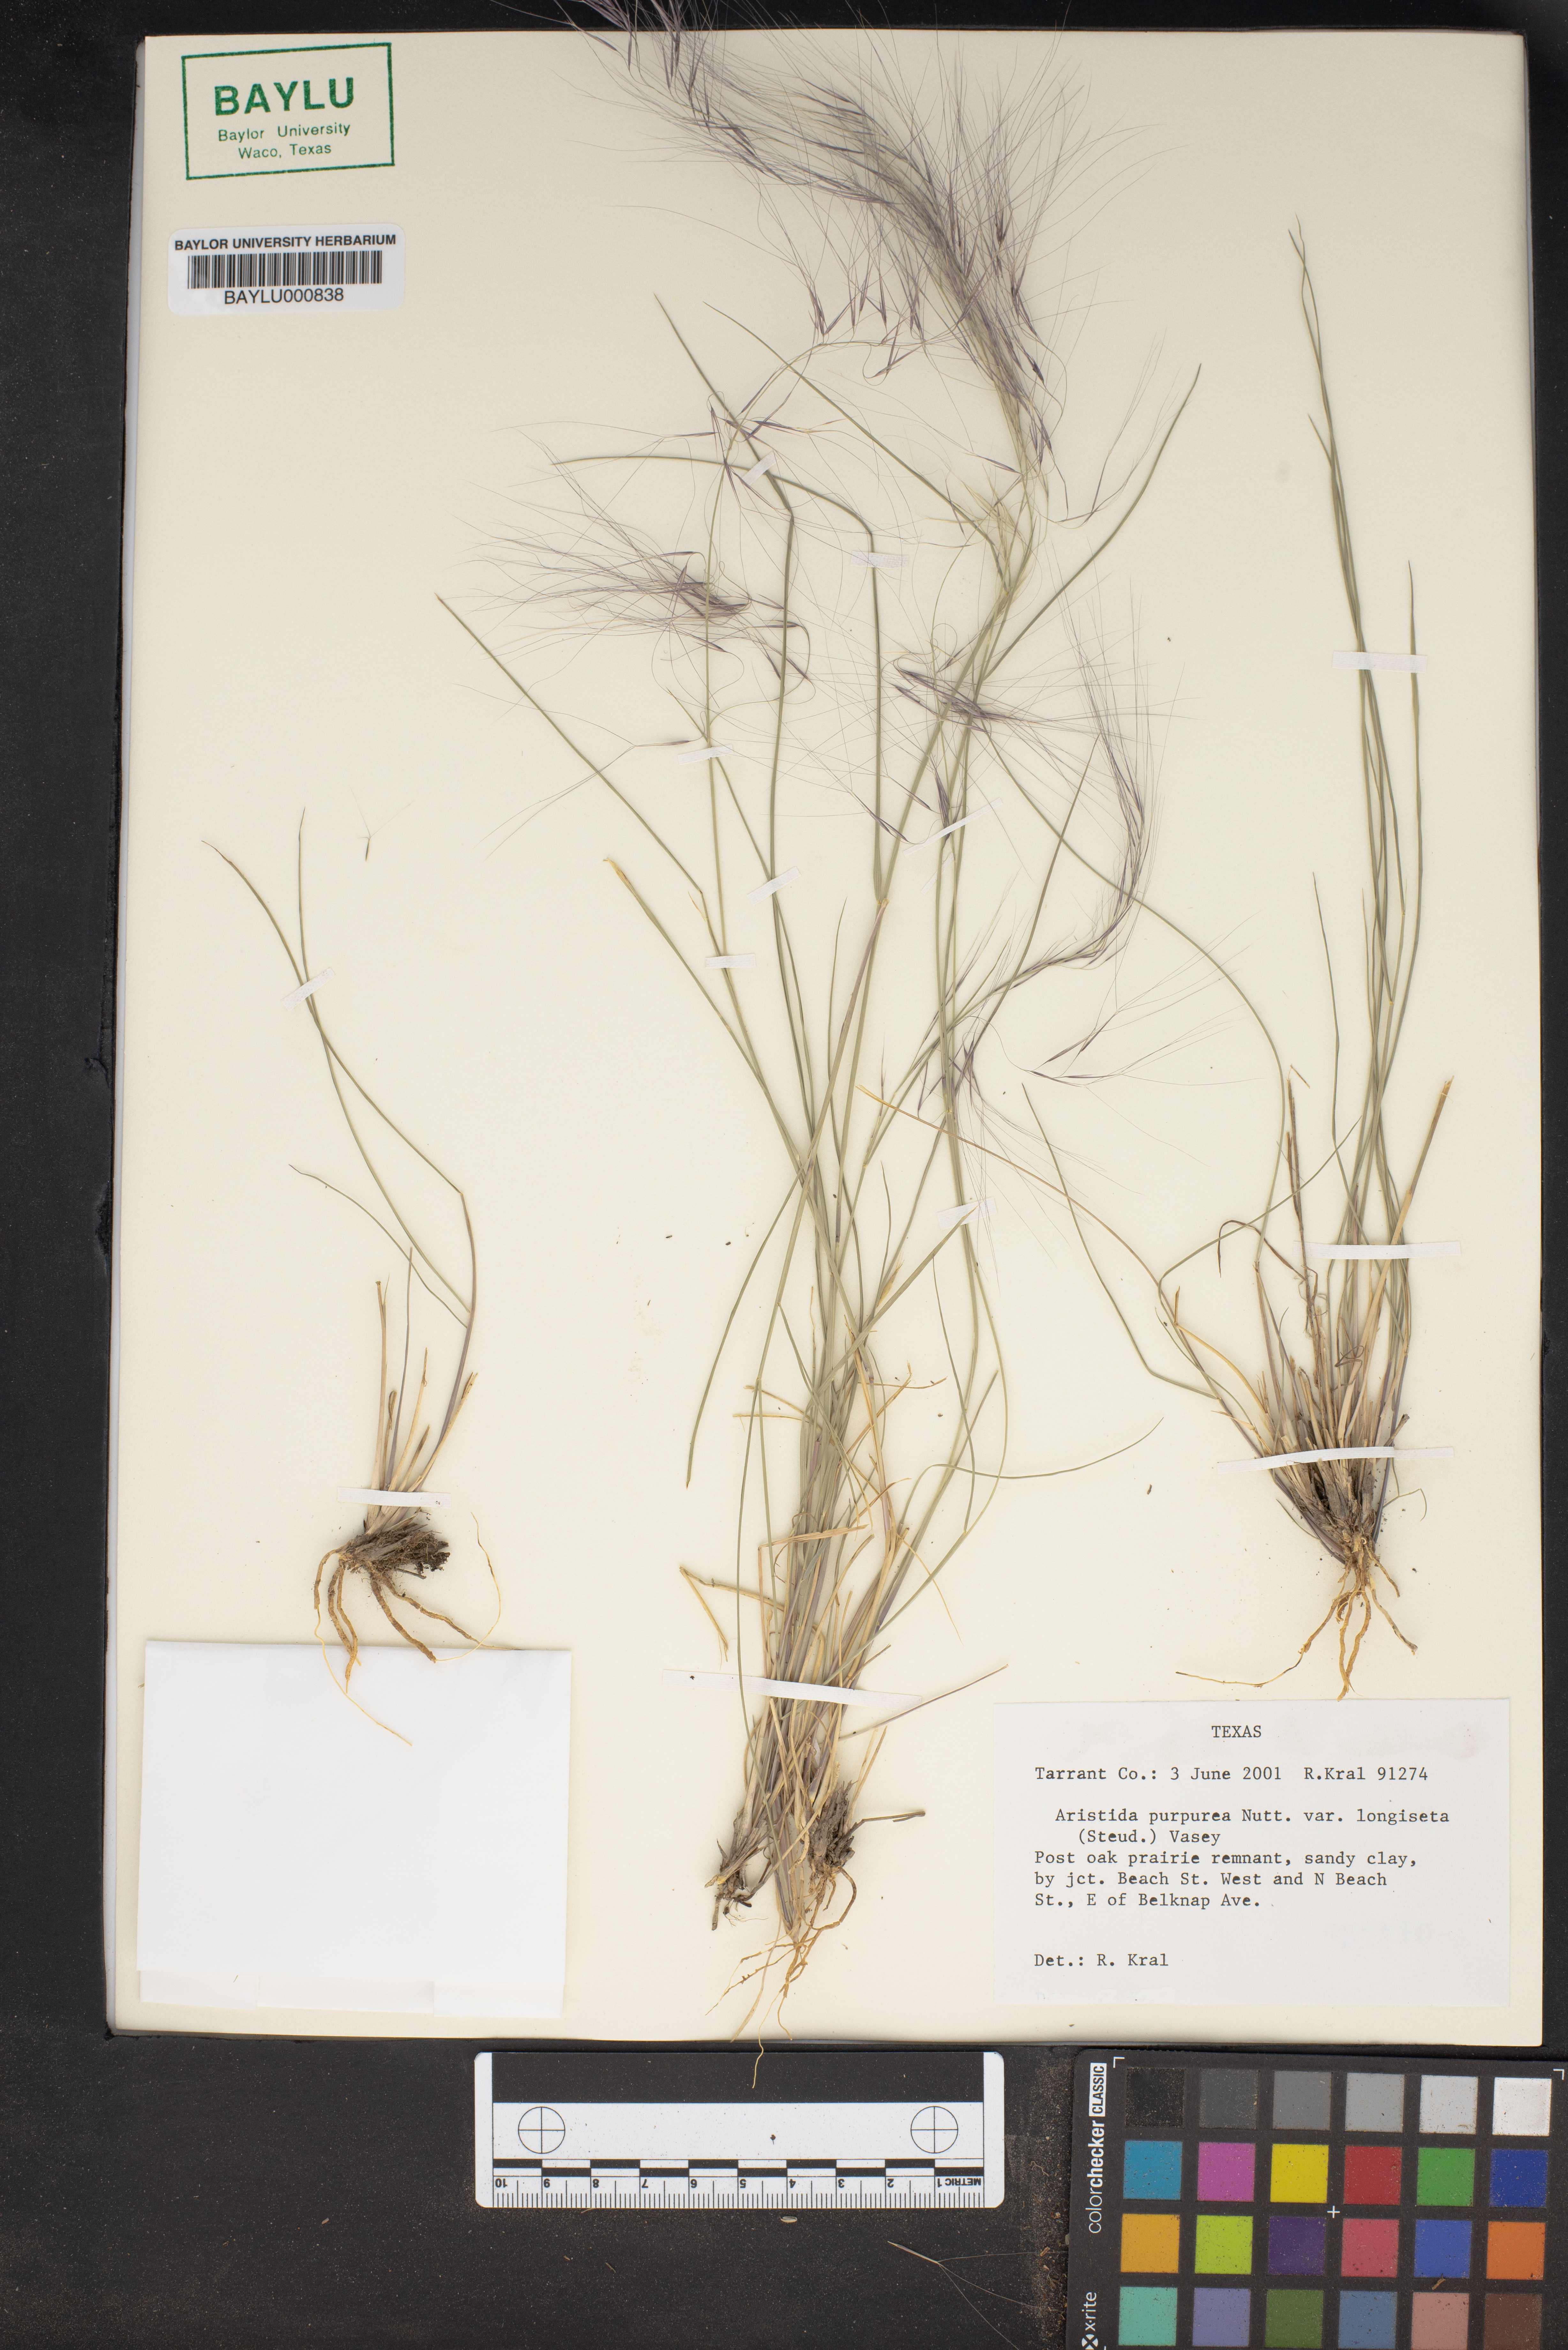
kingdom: Plantae
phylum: Tracheophyta
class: Liliopsida
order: Poales
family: Poaceae
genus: Aristida
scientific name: Aristida longiseta
